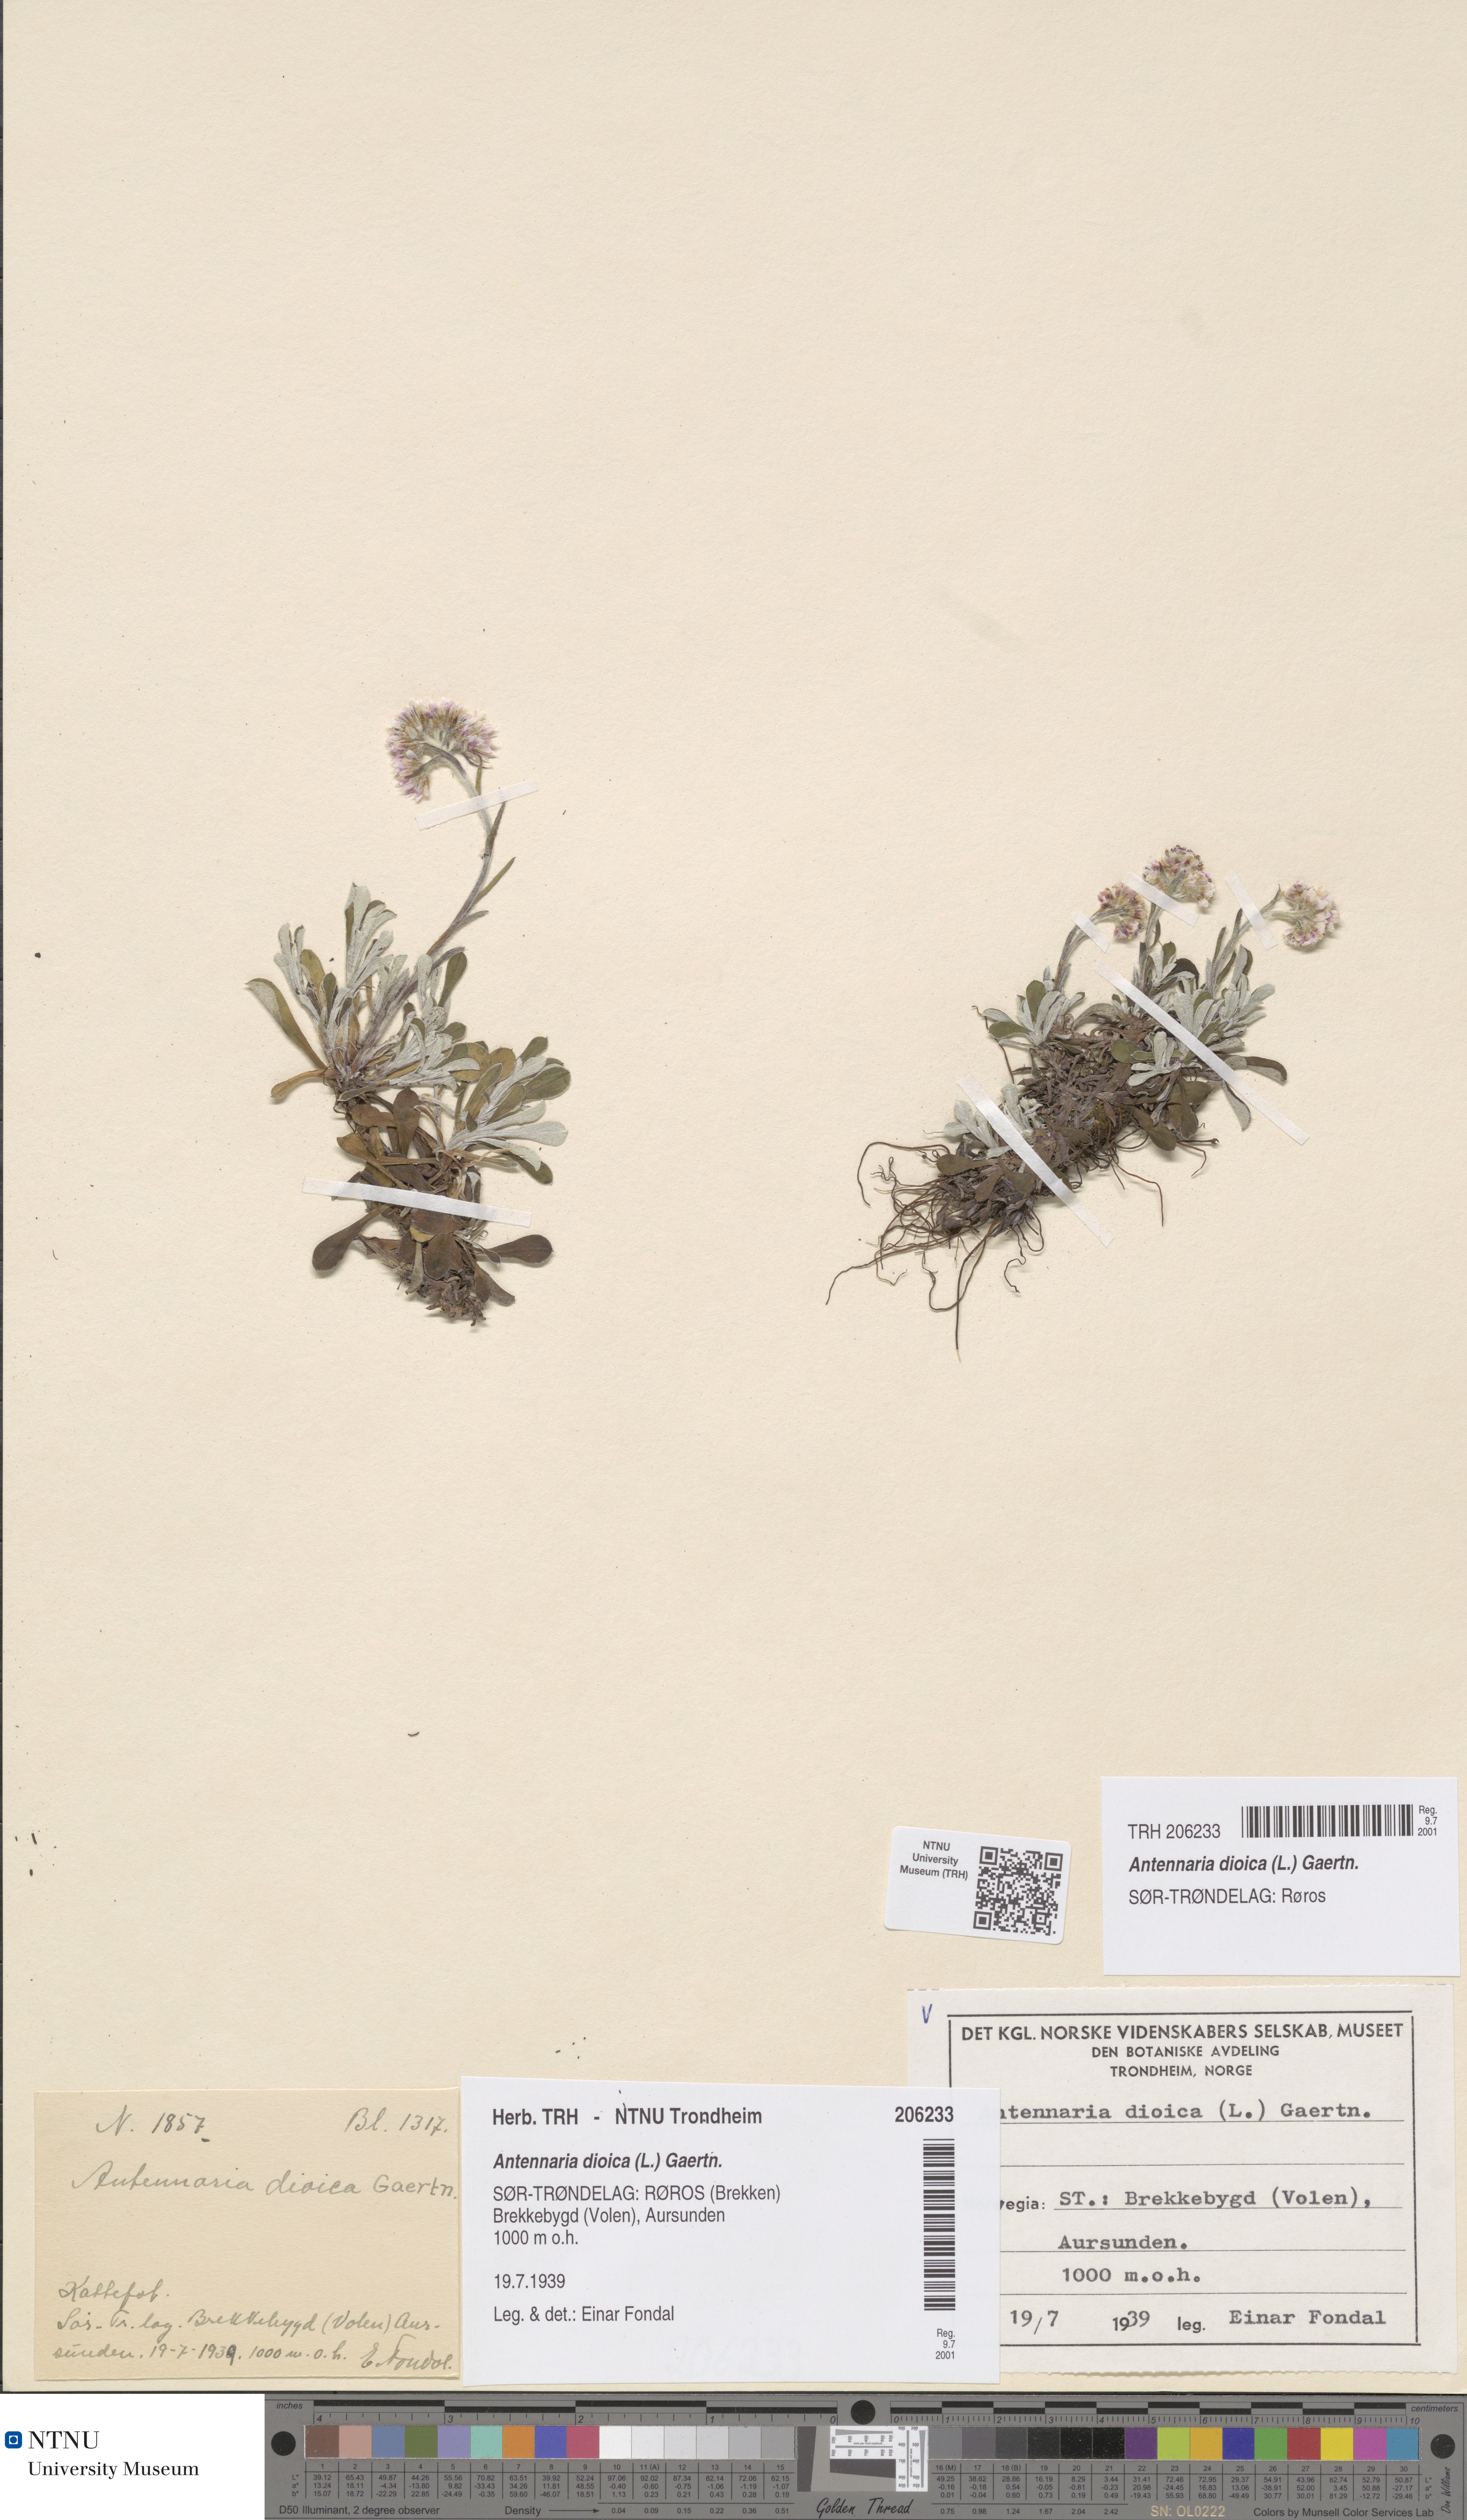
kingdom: Plantae
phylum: Tracheophyta
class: Magnoliopsida
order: Asterales
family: Asteraceae
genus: Antennaria
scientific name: Antennaria dioica
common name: Mountain everlasting
